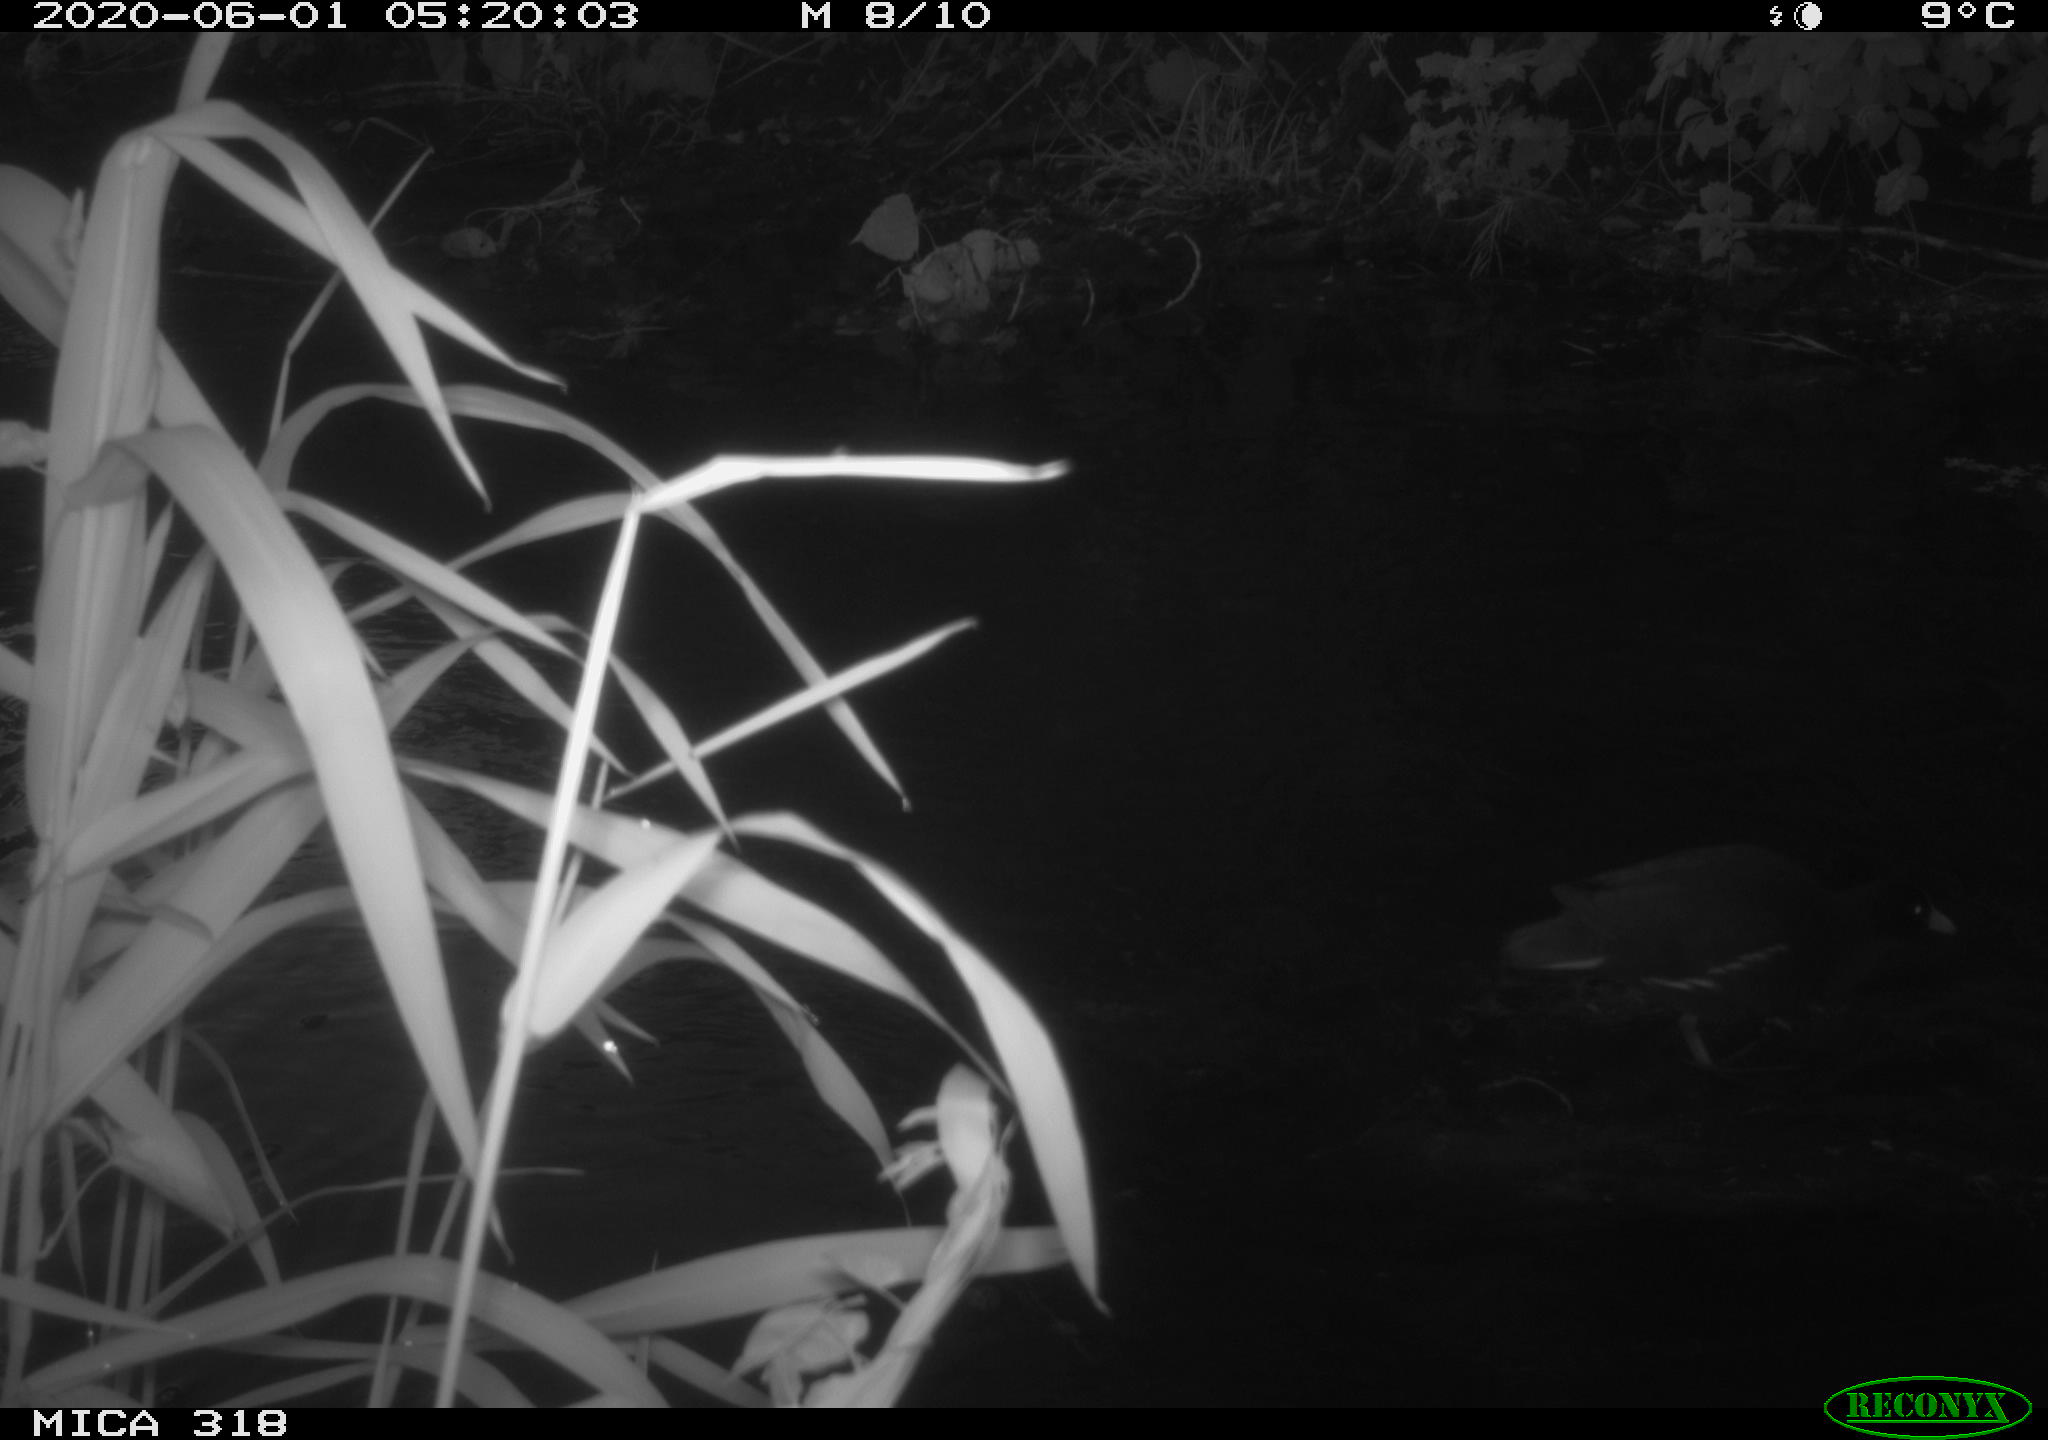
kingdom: Animalia
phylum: Chordata
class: Aves
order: Gruiformes
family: Rallidae
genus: Gallinula
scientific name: Gallinula chloropus
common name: Common moorhen
